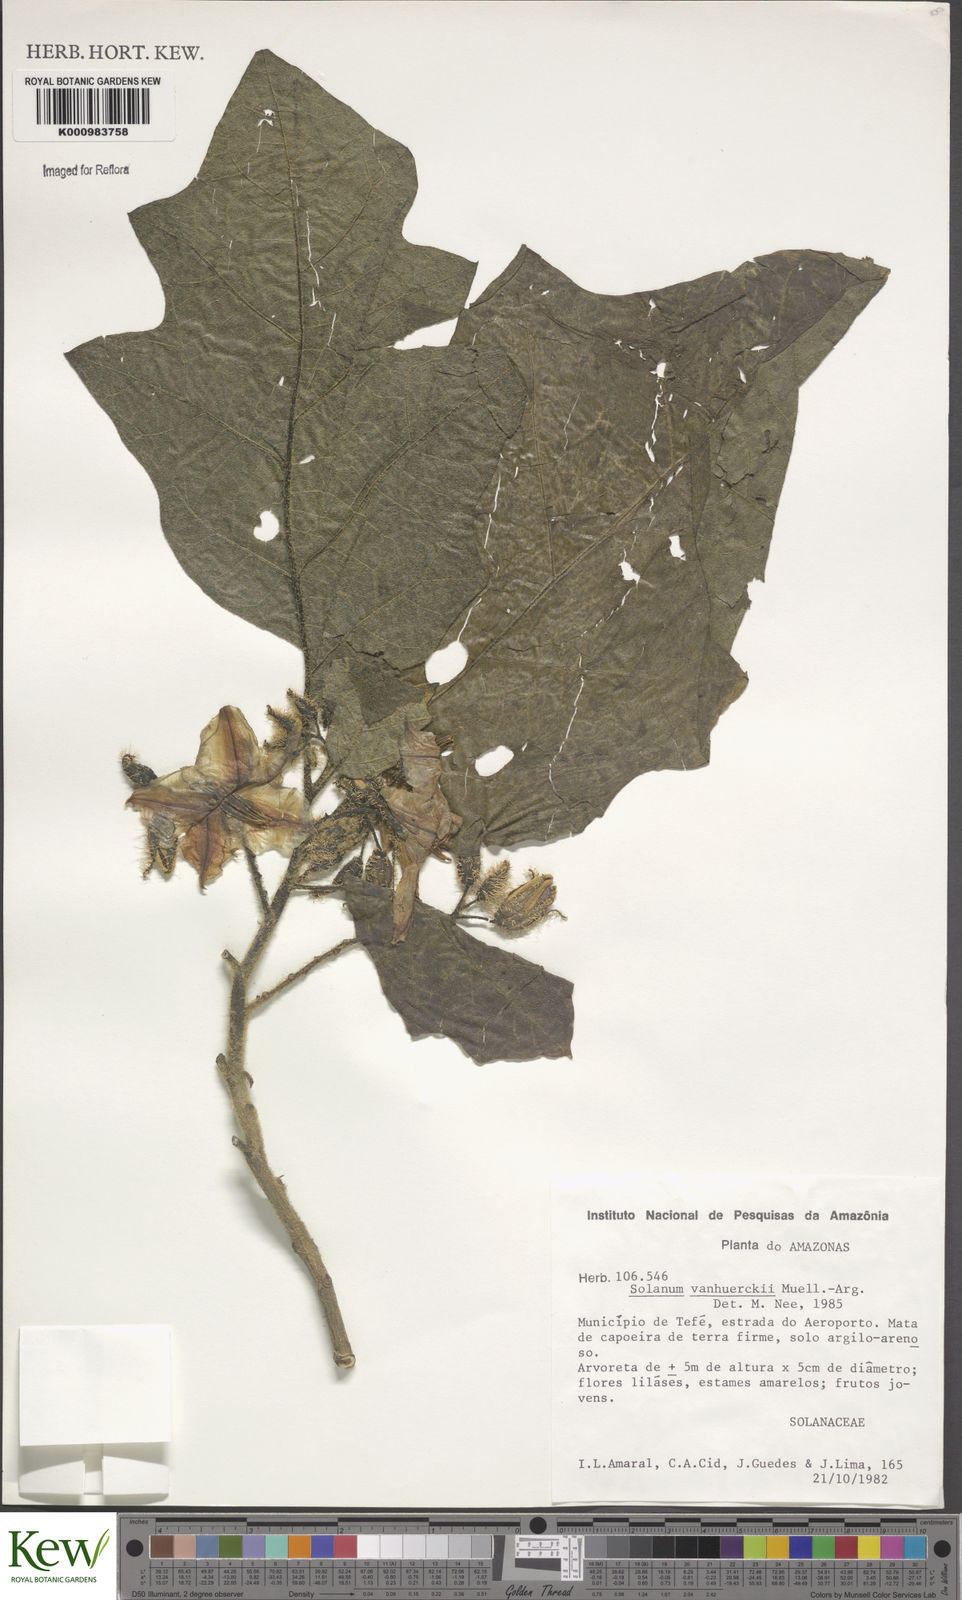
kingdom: Plantae
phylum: Tracheophyta
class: Magnoliopsida
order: Solanales
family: Solanaceae
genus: Solanum
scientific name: Solanum
